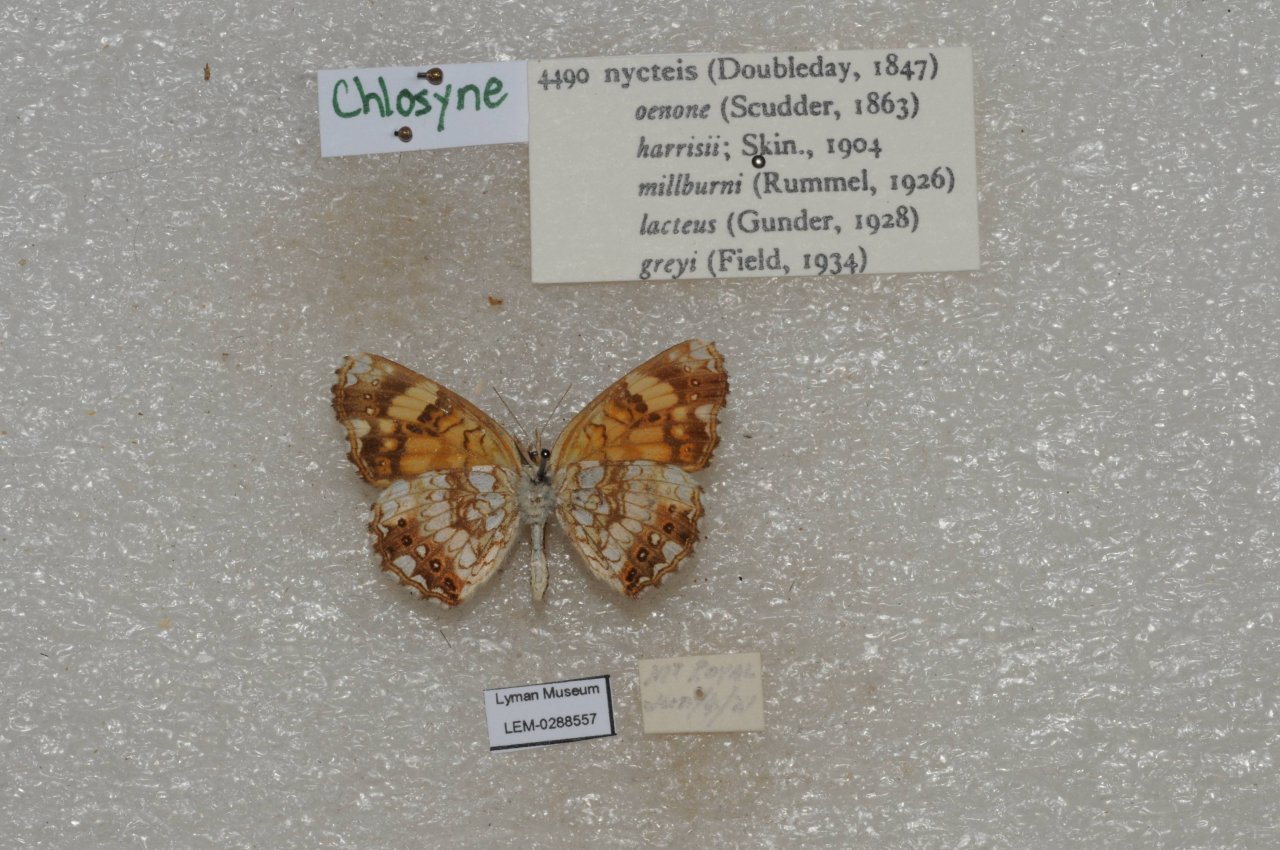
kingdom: Animalia
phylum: Arthropoda
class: Insecta
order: Lepidoptera
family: Nymphalidae
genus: Chlosyne
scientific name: Chlosyne nycteis
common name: Silvery Checkerspot
